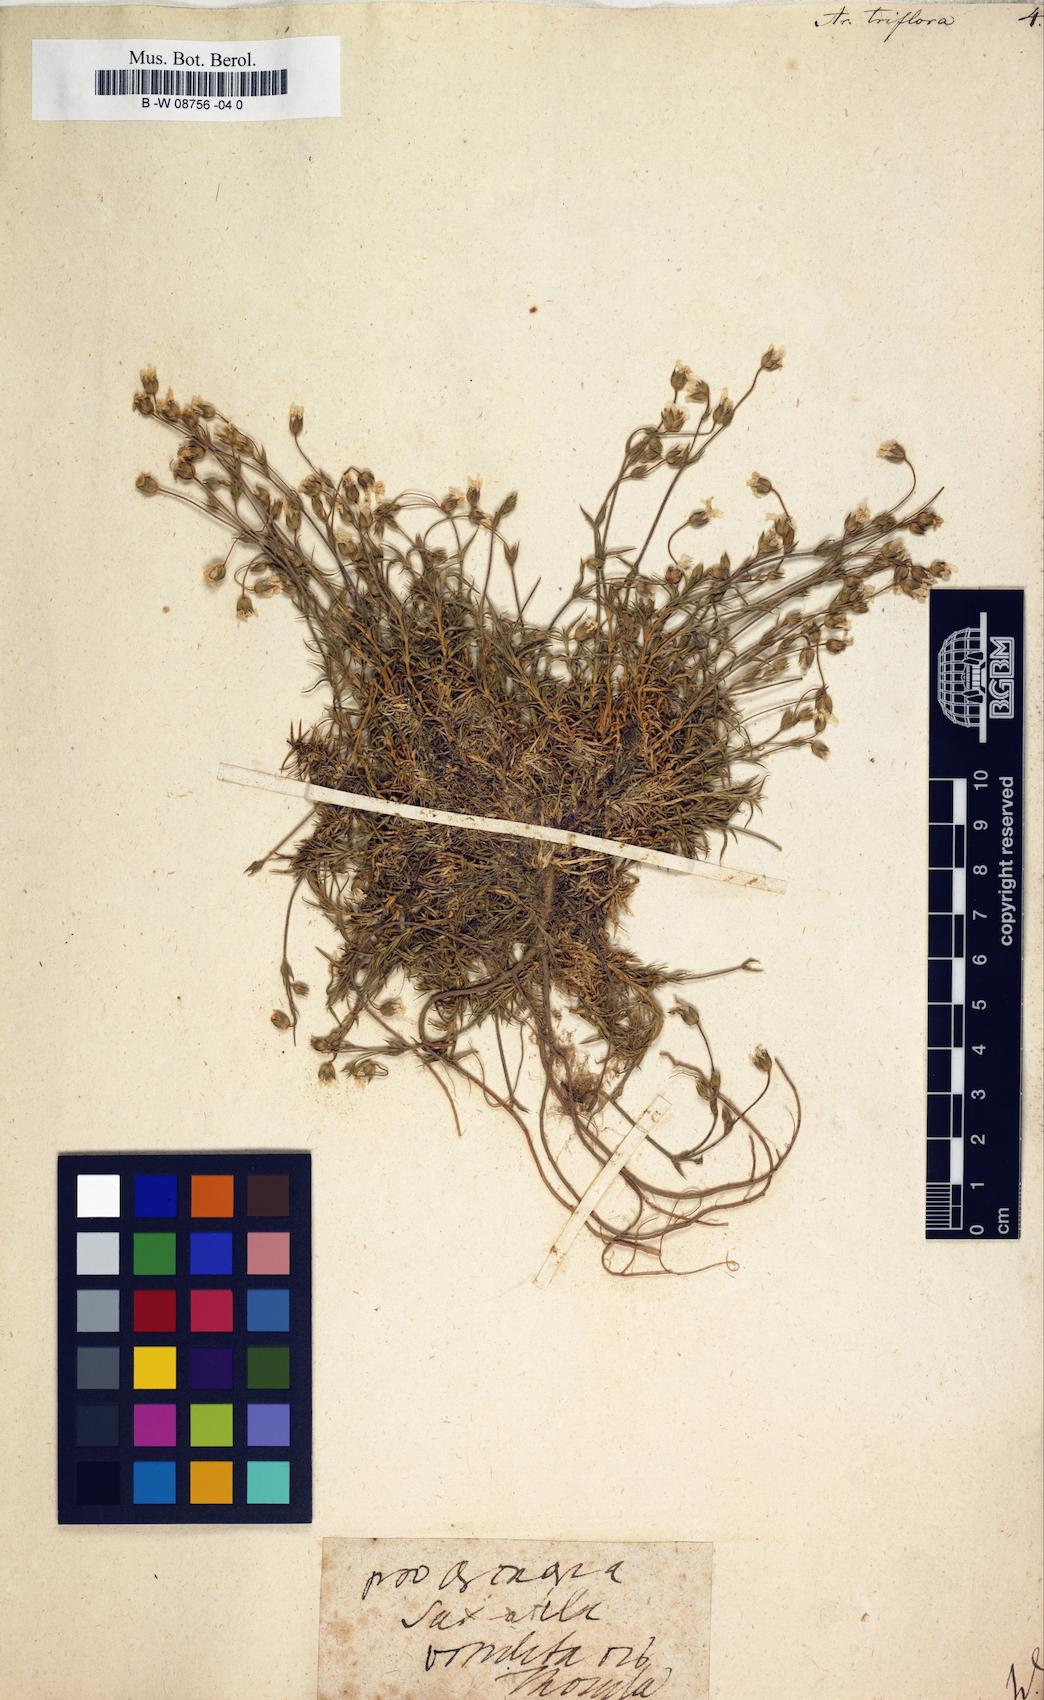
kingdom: Plantae
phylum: Tracheophyta
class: Magnoliopsida
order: Caryophyllales
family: Caryophyllaceae
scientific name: Caryophyllaceae
